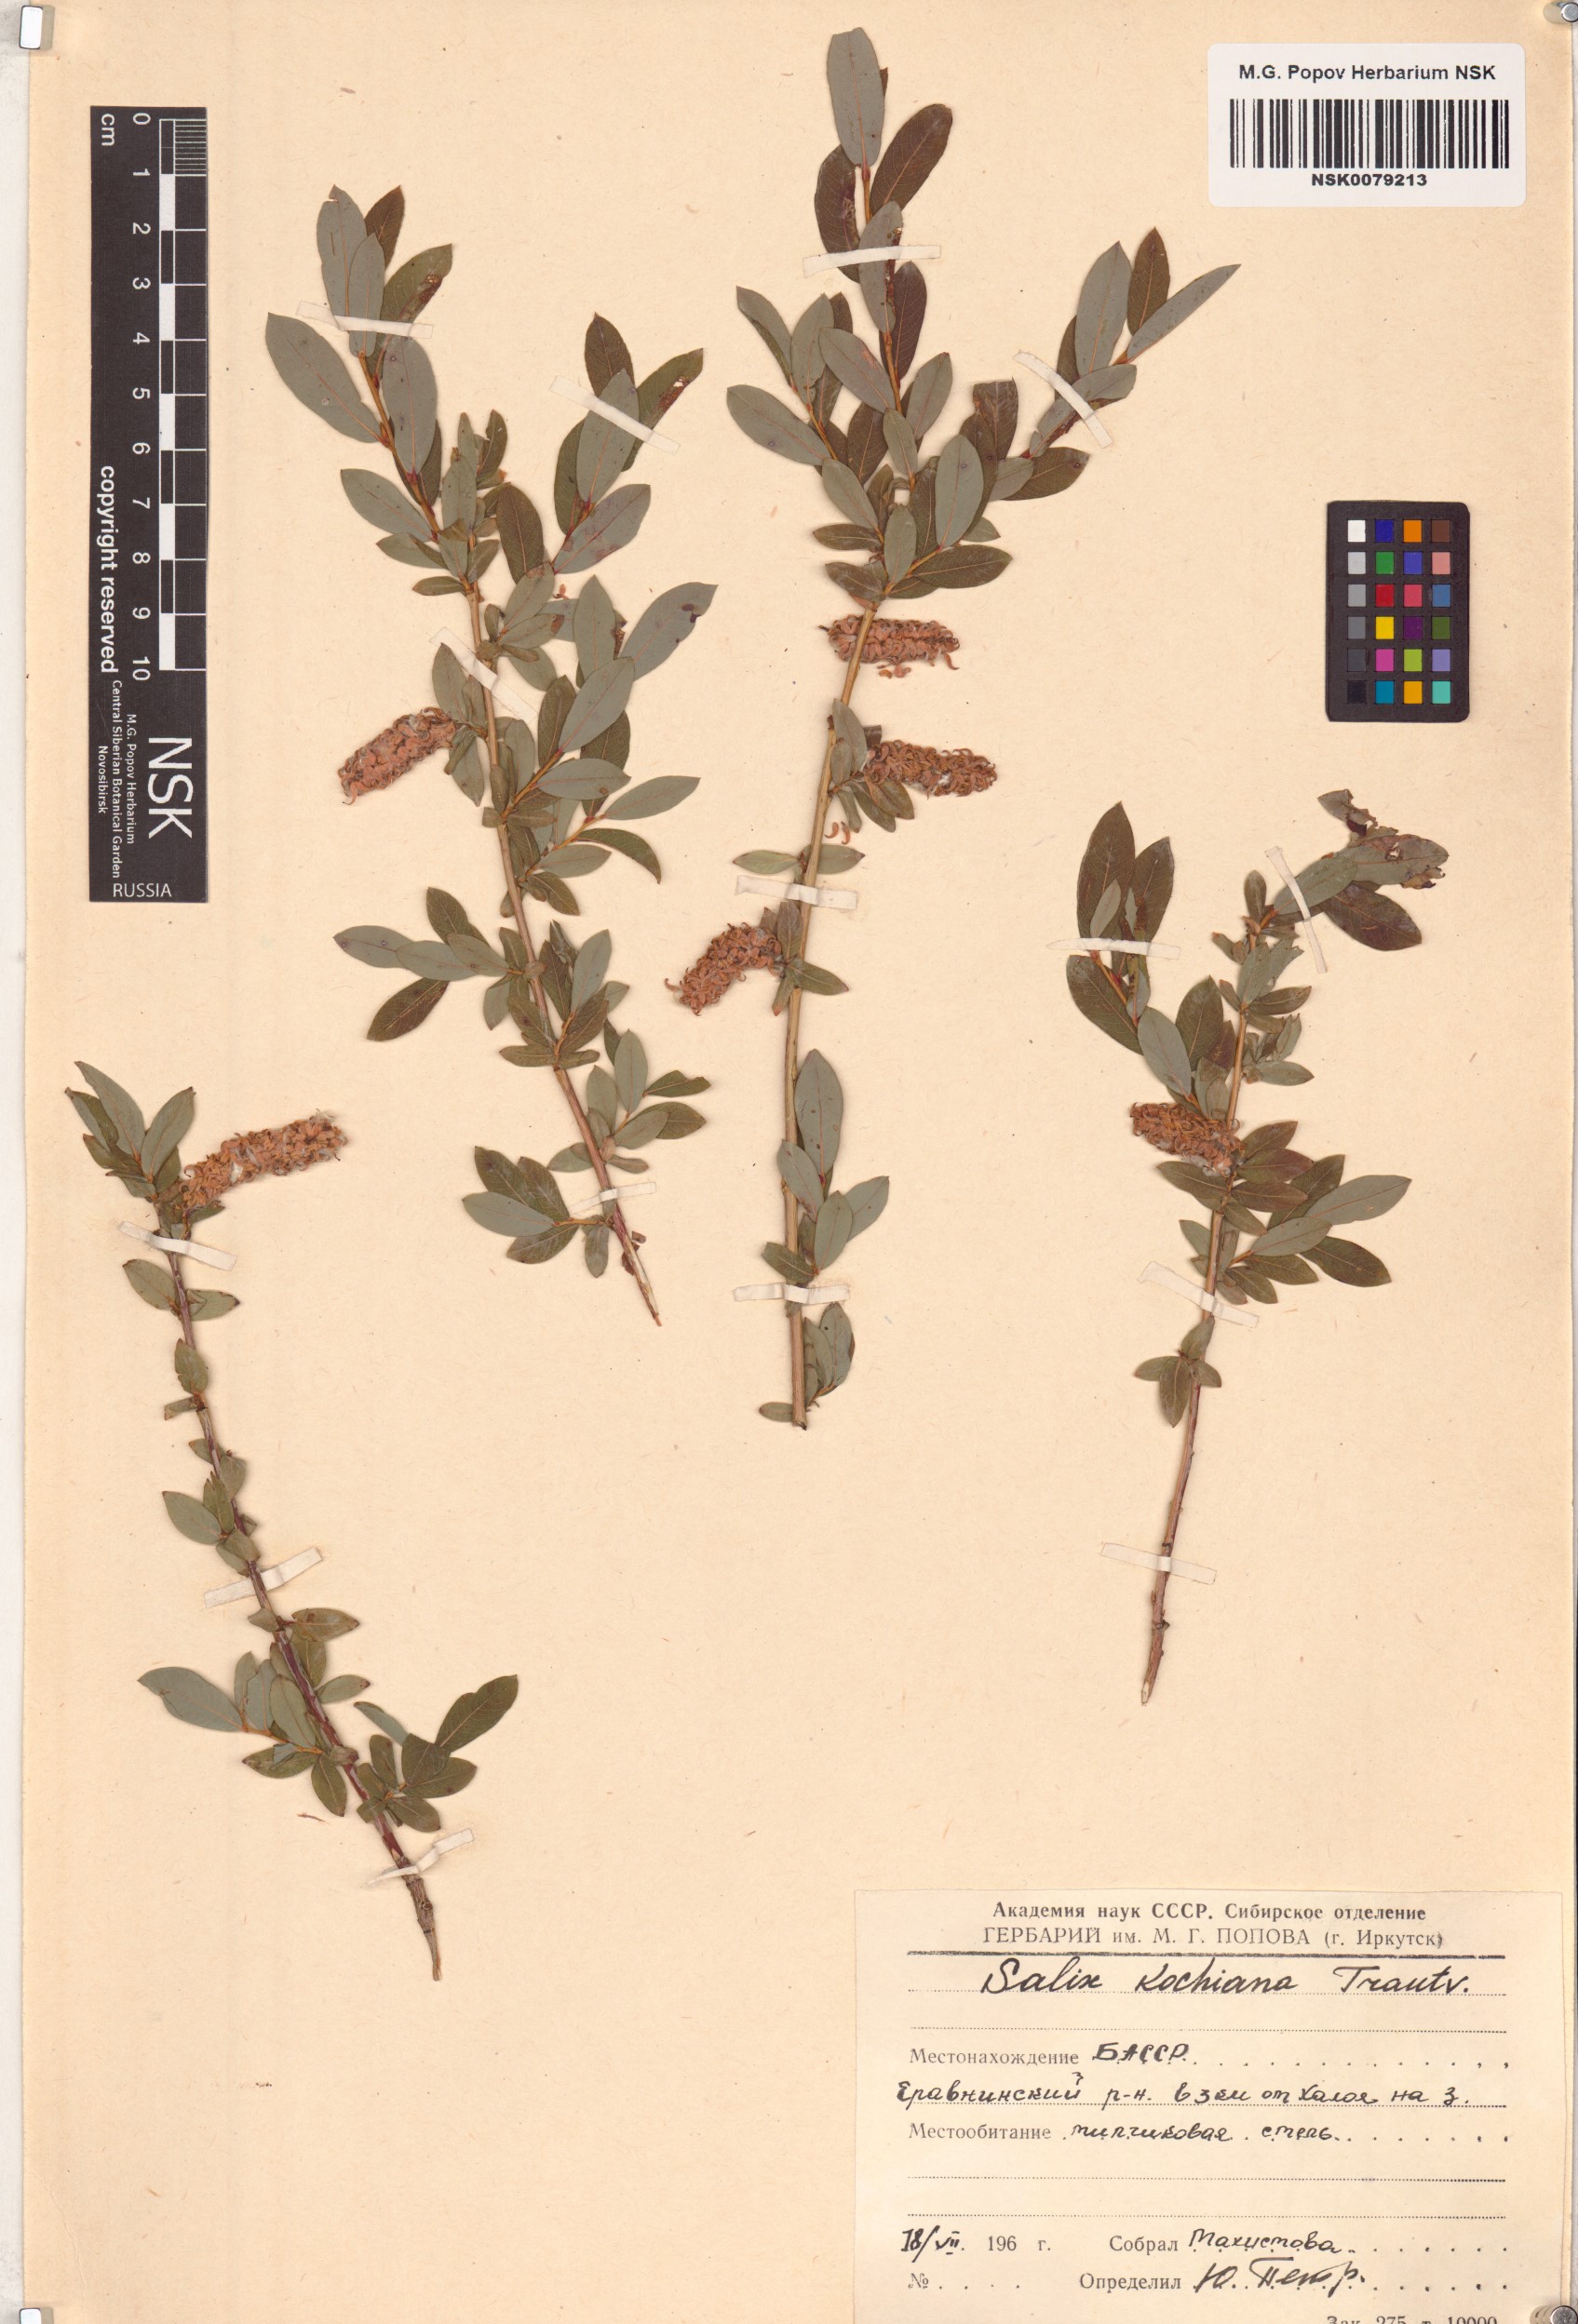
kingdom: Plantae
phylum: Tracheophyta
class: Magnoliopsida
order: Malpighiales
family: Salicaceae
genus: Salix
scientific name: Salix kochiana
